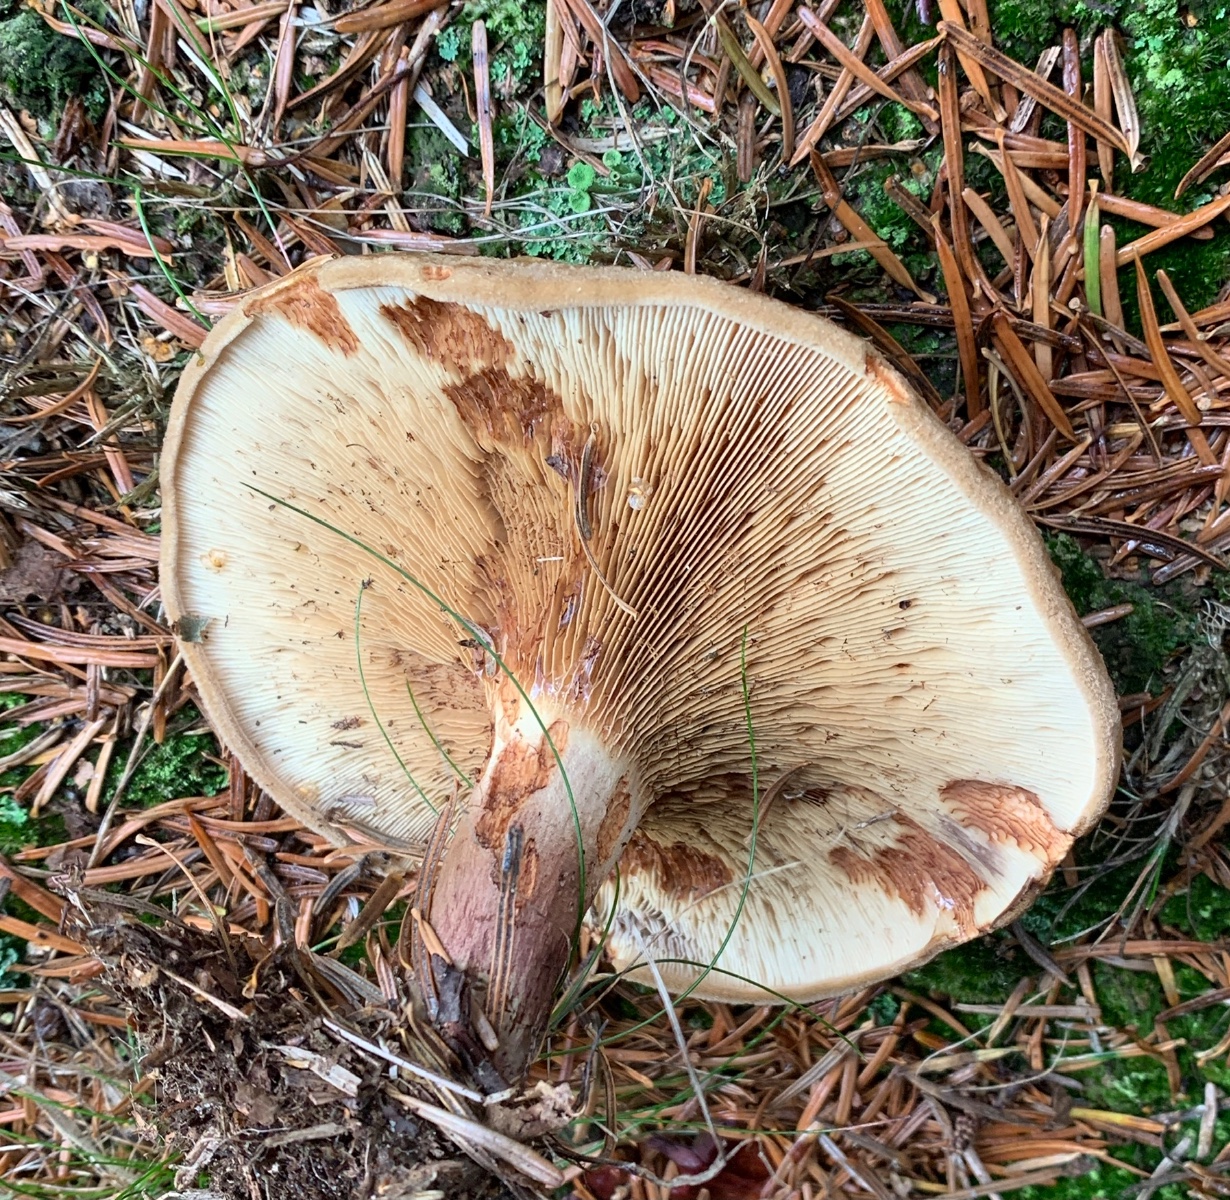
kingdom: Fungi
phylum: Basidiomycota
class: Agaricomycetes
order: Boletales
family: Paxillaceae
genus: Paxillus
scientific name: Paxillus involutus
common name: almindelig netbladhat
